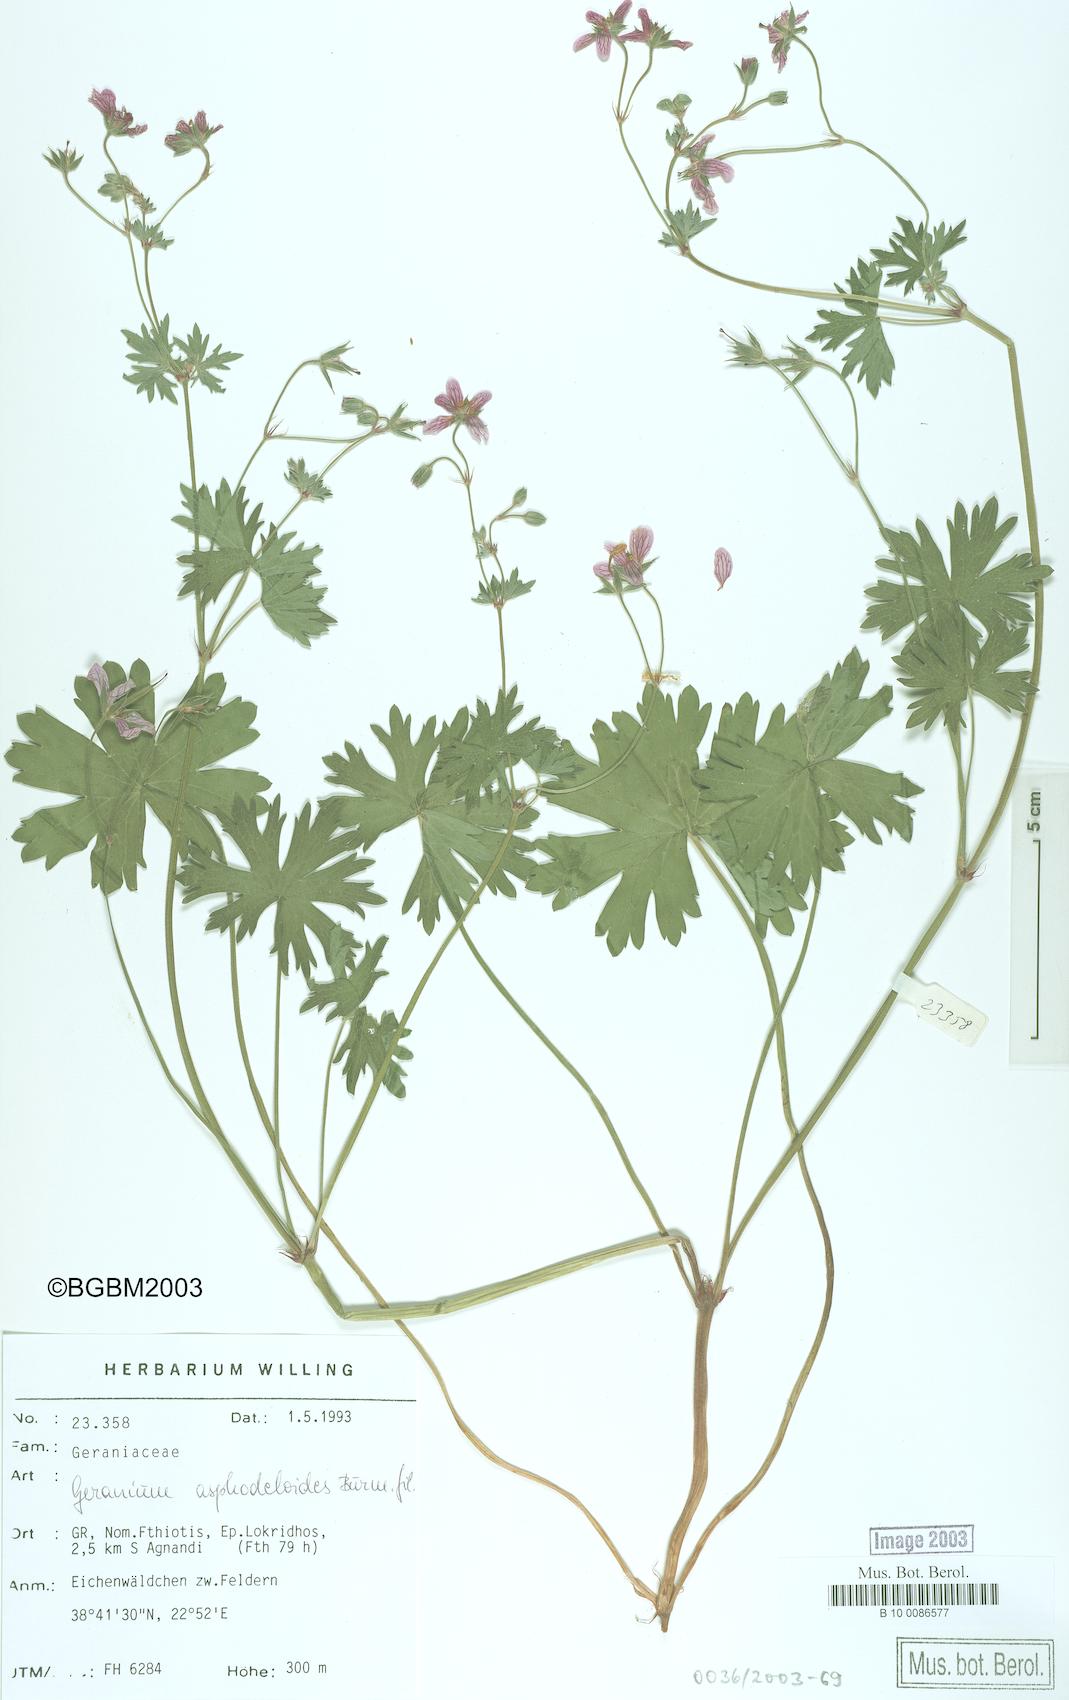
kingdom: Plantae
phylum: Tracheophyta
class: Magnoliopsida
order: Geraniales
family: Geraniaceae
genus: Geranium
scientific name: Geranium asphodeloides
